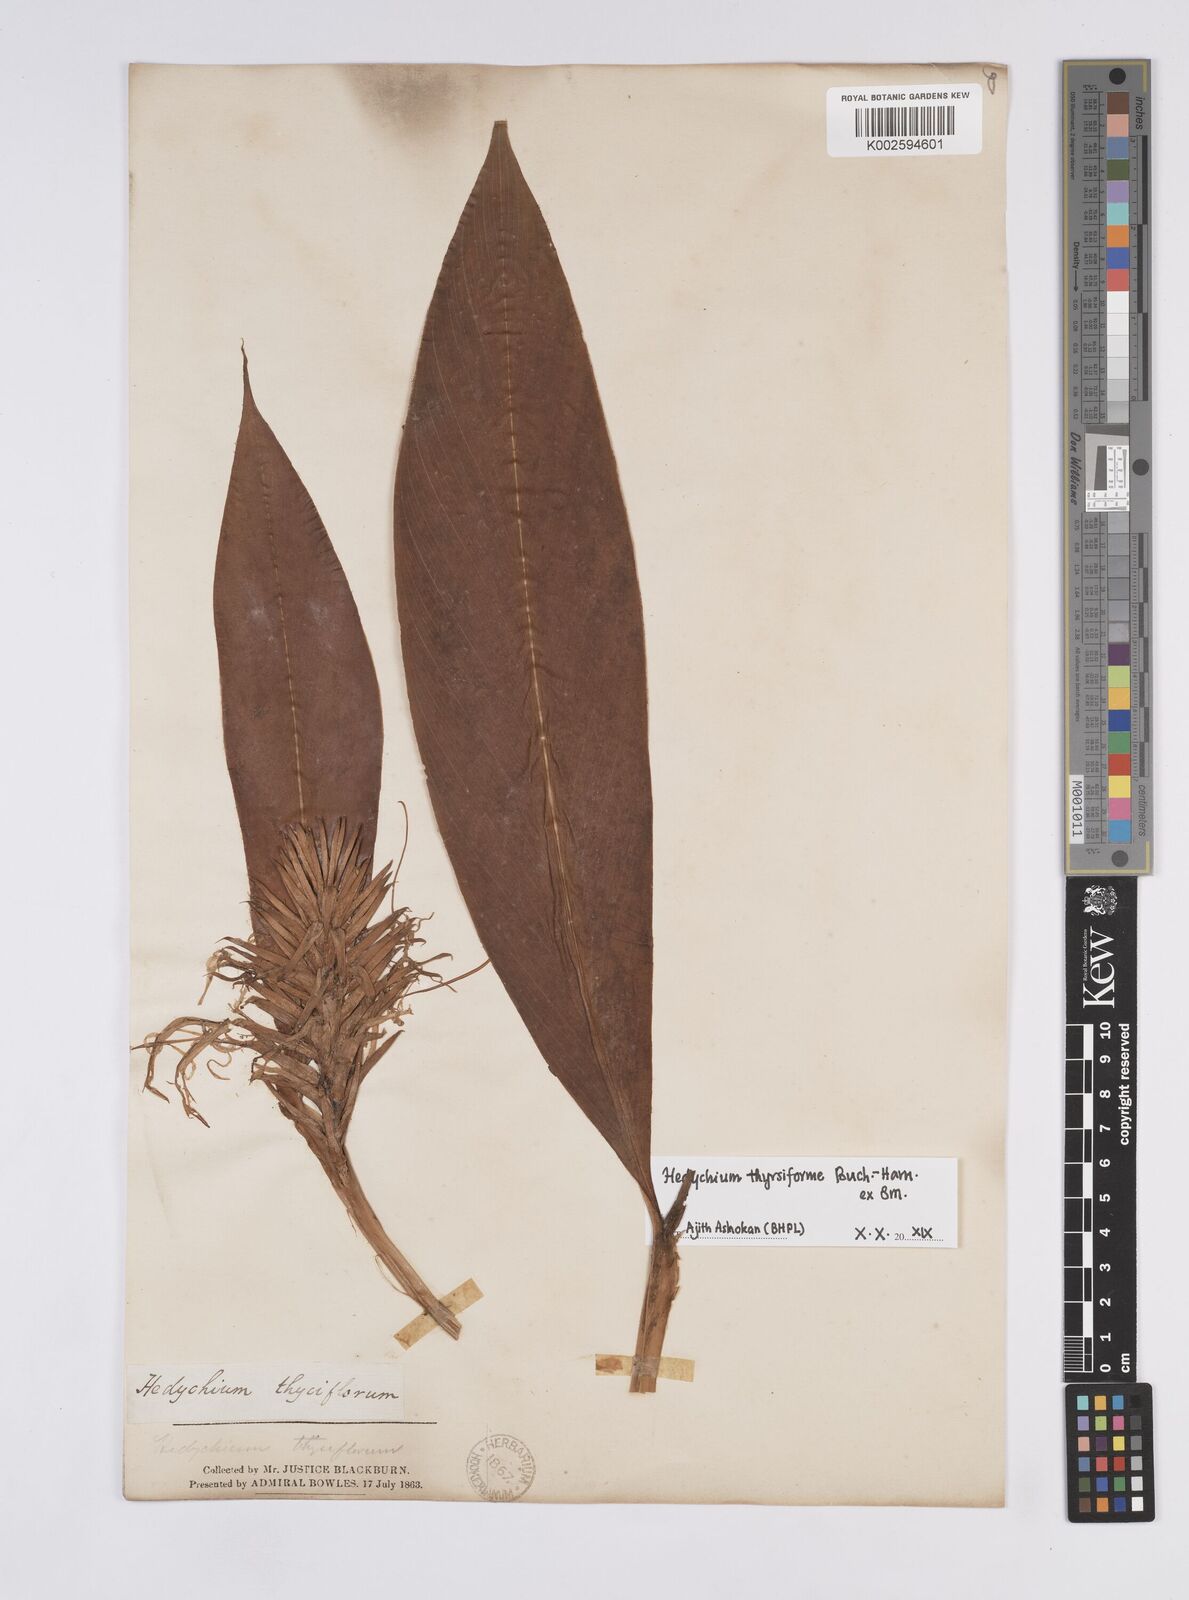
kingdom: Plantae
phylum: Tracheophyta
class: Liliopsida
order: Zingiberales
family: Zingiberaceae
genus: Hedychium
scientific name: Hedychium thyrsiforme
